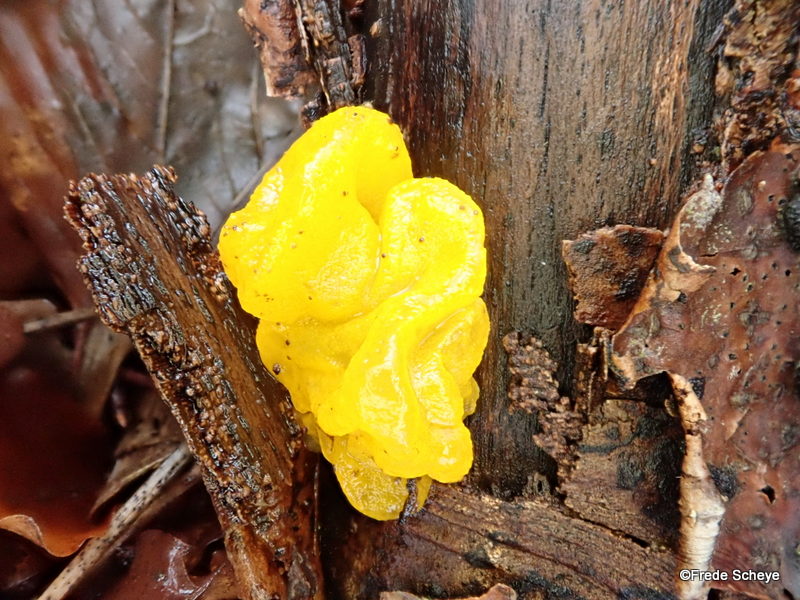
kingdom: Fungi
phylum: Basidiomycota
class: Tremellomycetes
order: Tremellales
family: Tremellaceae
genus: Tremella
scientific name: Tremella mesenterica
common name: gul bævresvamp
